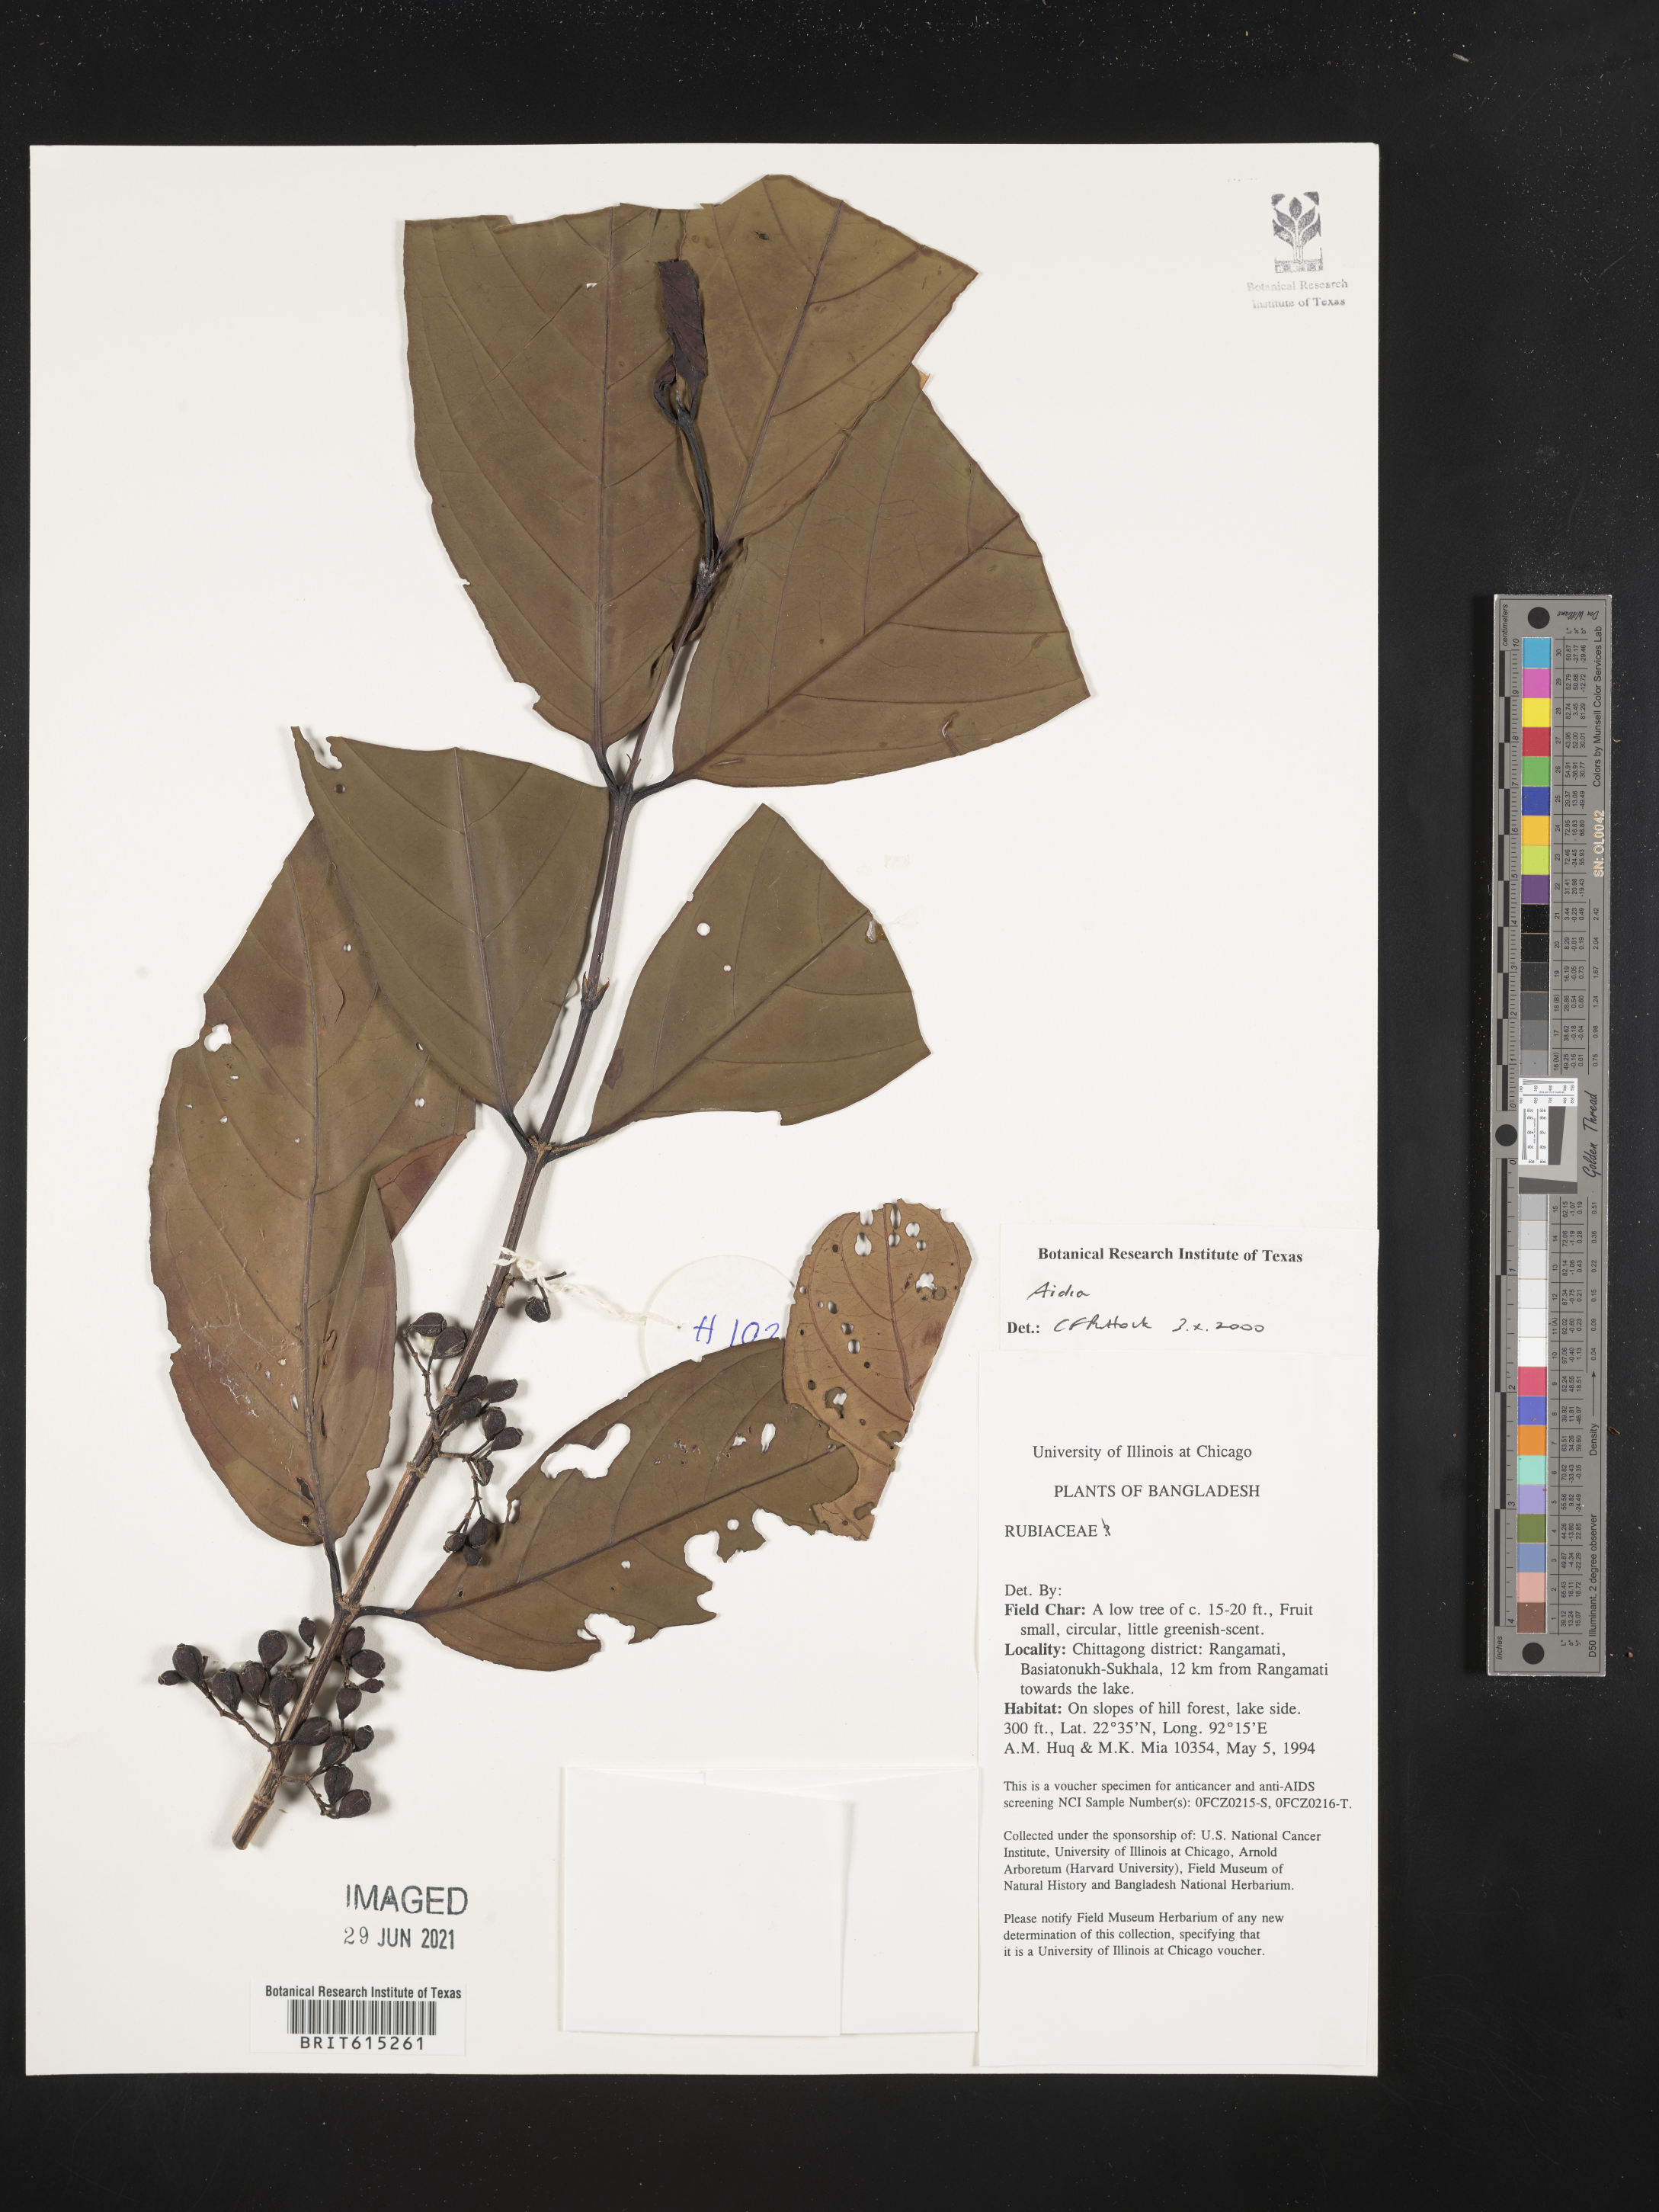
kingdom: Plantae
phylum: Tracheophyta
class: Magnoliopsida
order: Gentianales
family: Rubiaceae
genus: Aidia
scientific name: Aidia
